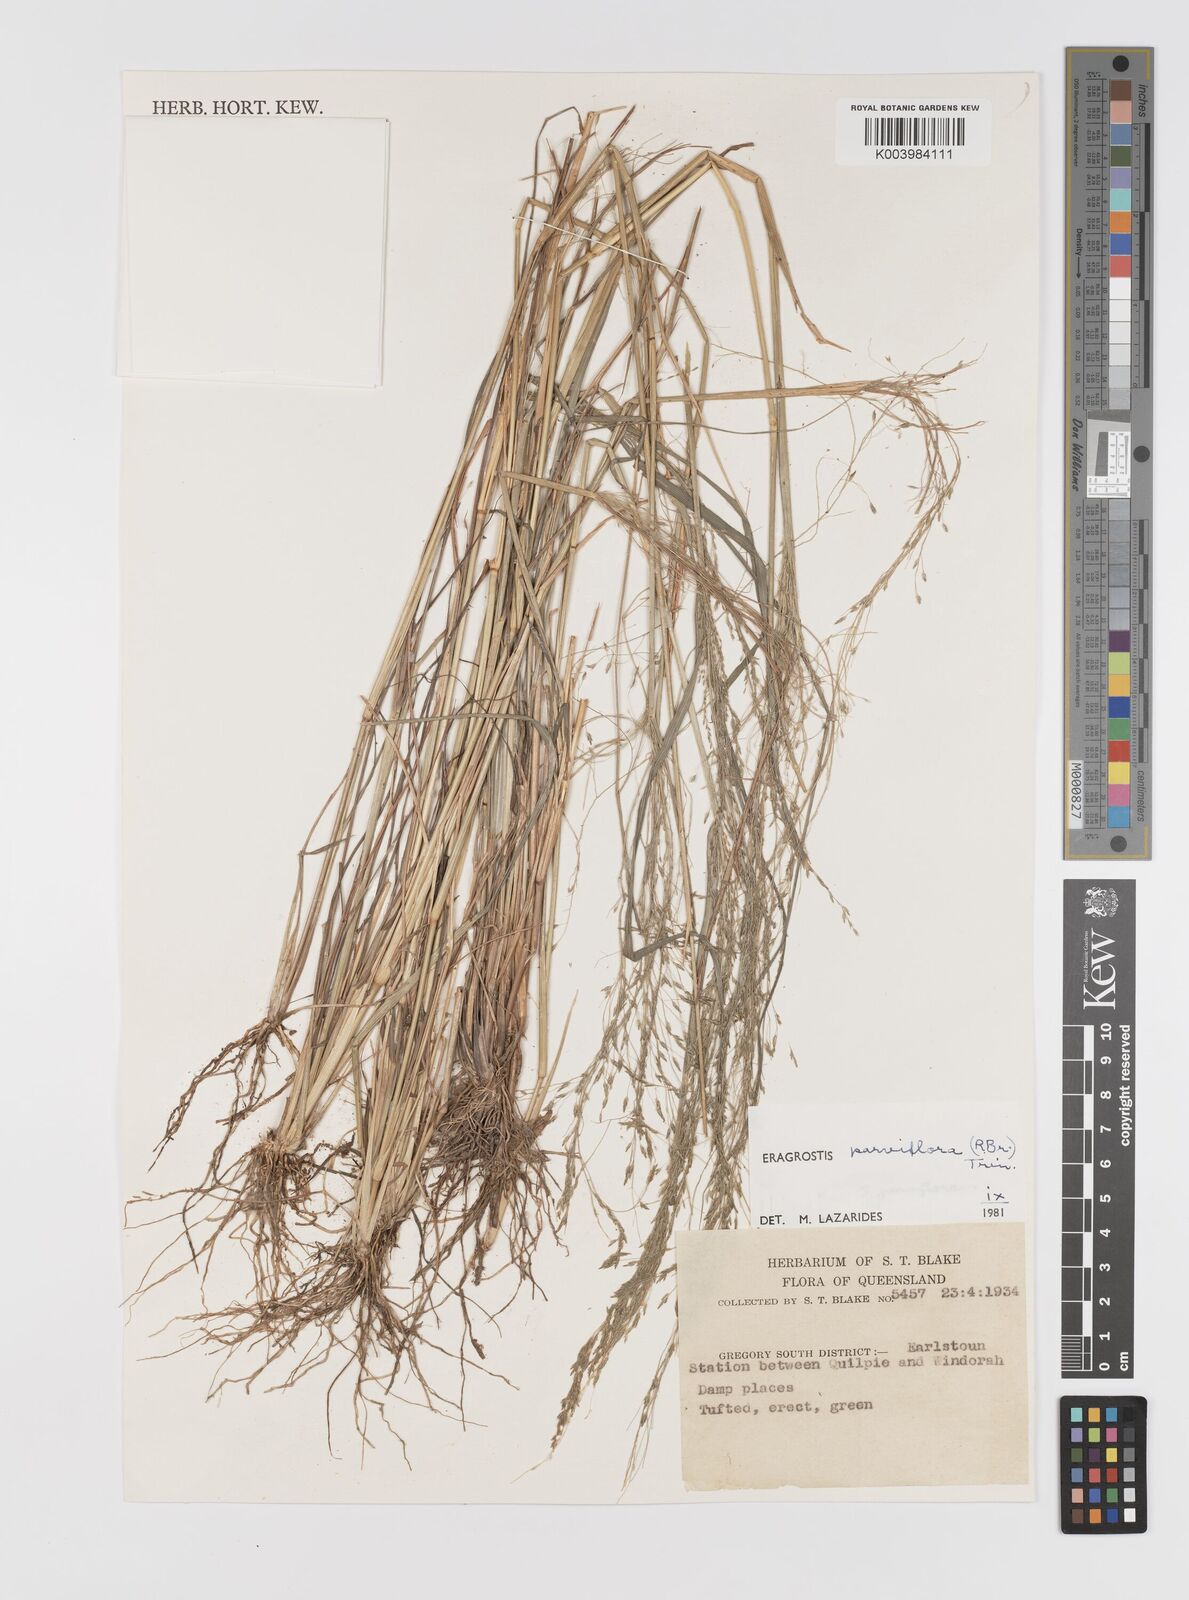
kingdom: Plantae
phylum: Tracheophyta
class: Liliopsida
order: Poales
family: Poaceae
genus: Eragrostis
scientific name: Eragrostis parviflora
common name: Weeping love-grass
